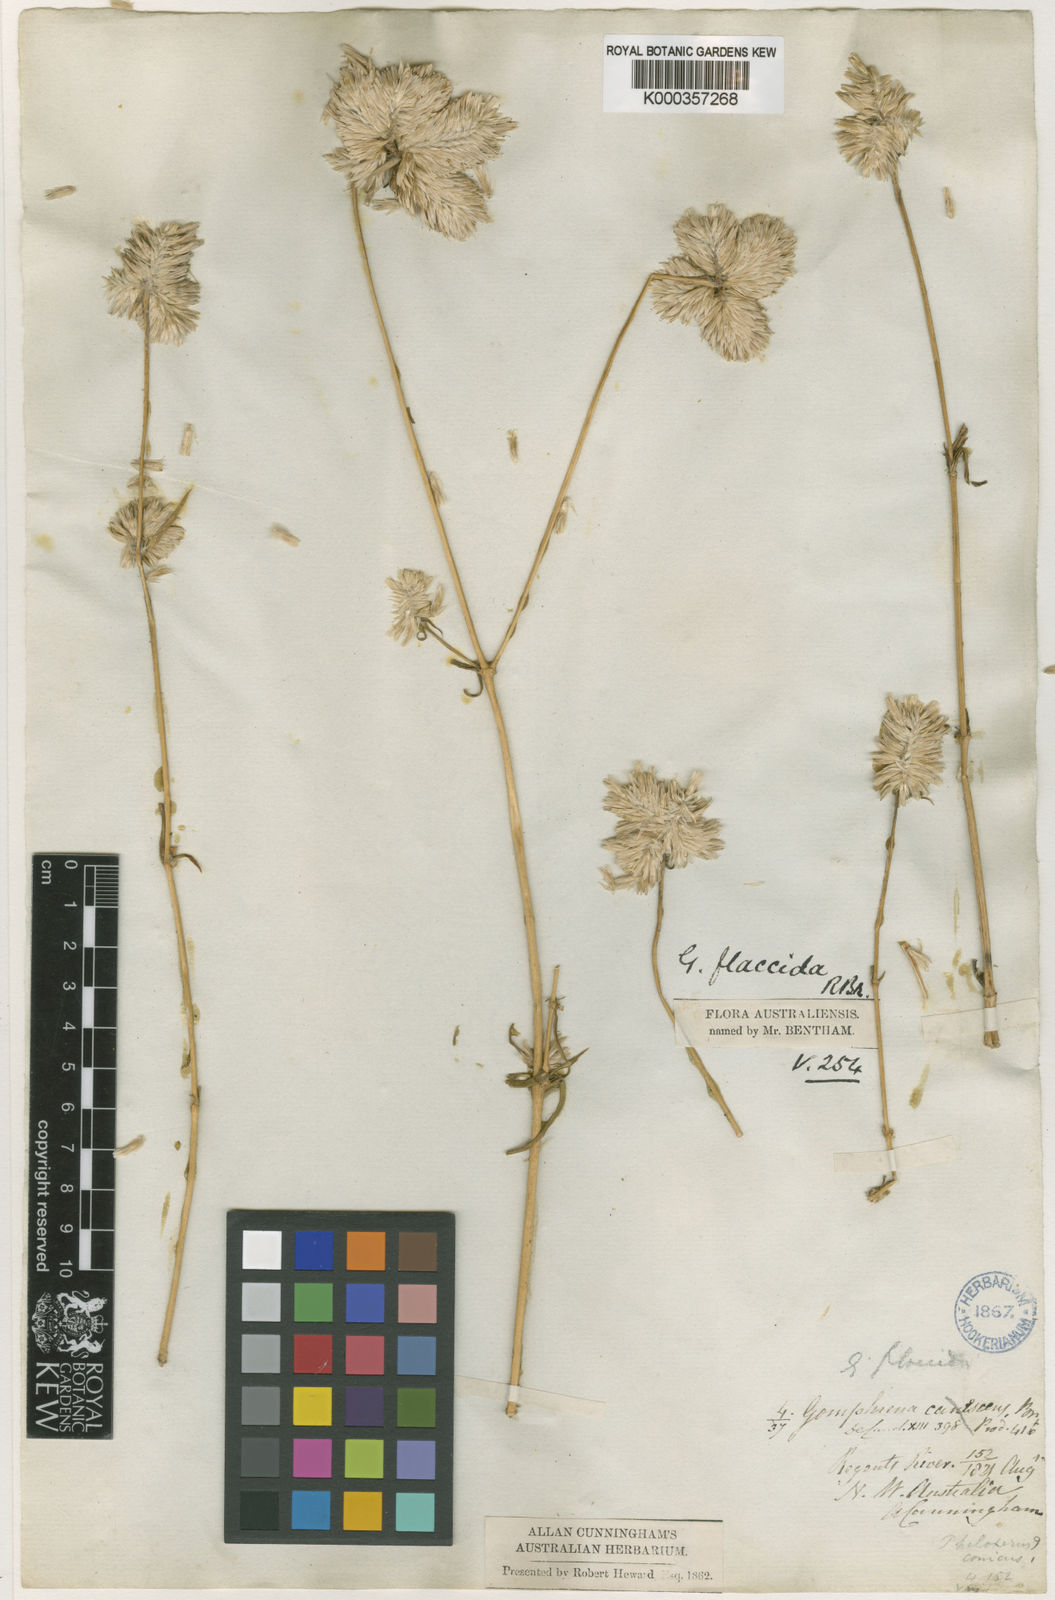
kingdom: Plantae
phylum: Tracheophyta
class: Magnoliopsida
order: Caryophyllales
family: Amaranthaceae
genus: Gomphrena
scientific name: Gomphrena flaccida
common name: Gomphrena-weed
